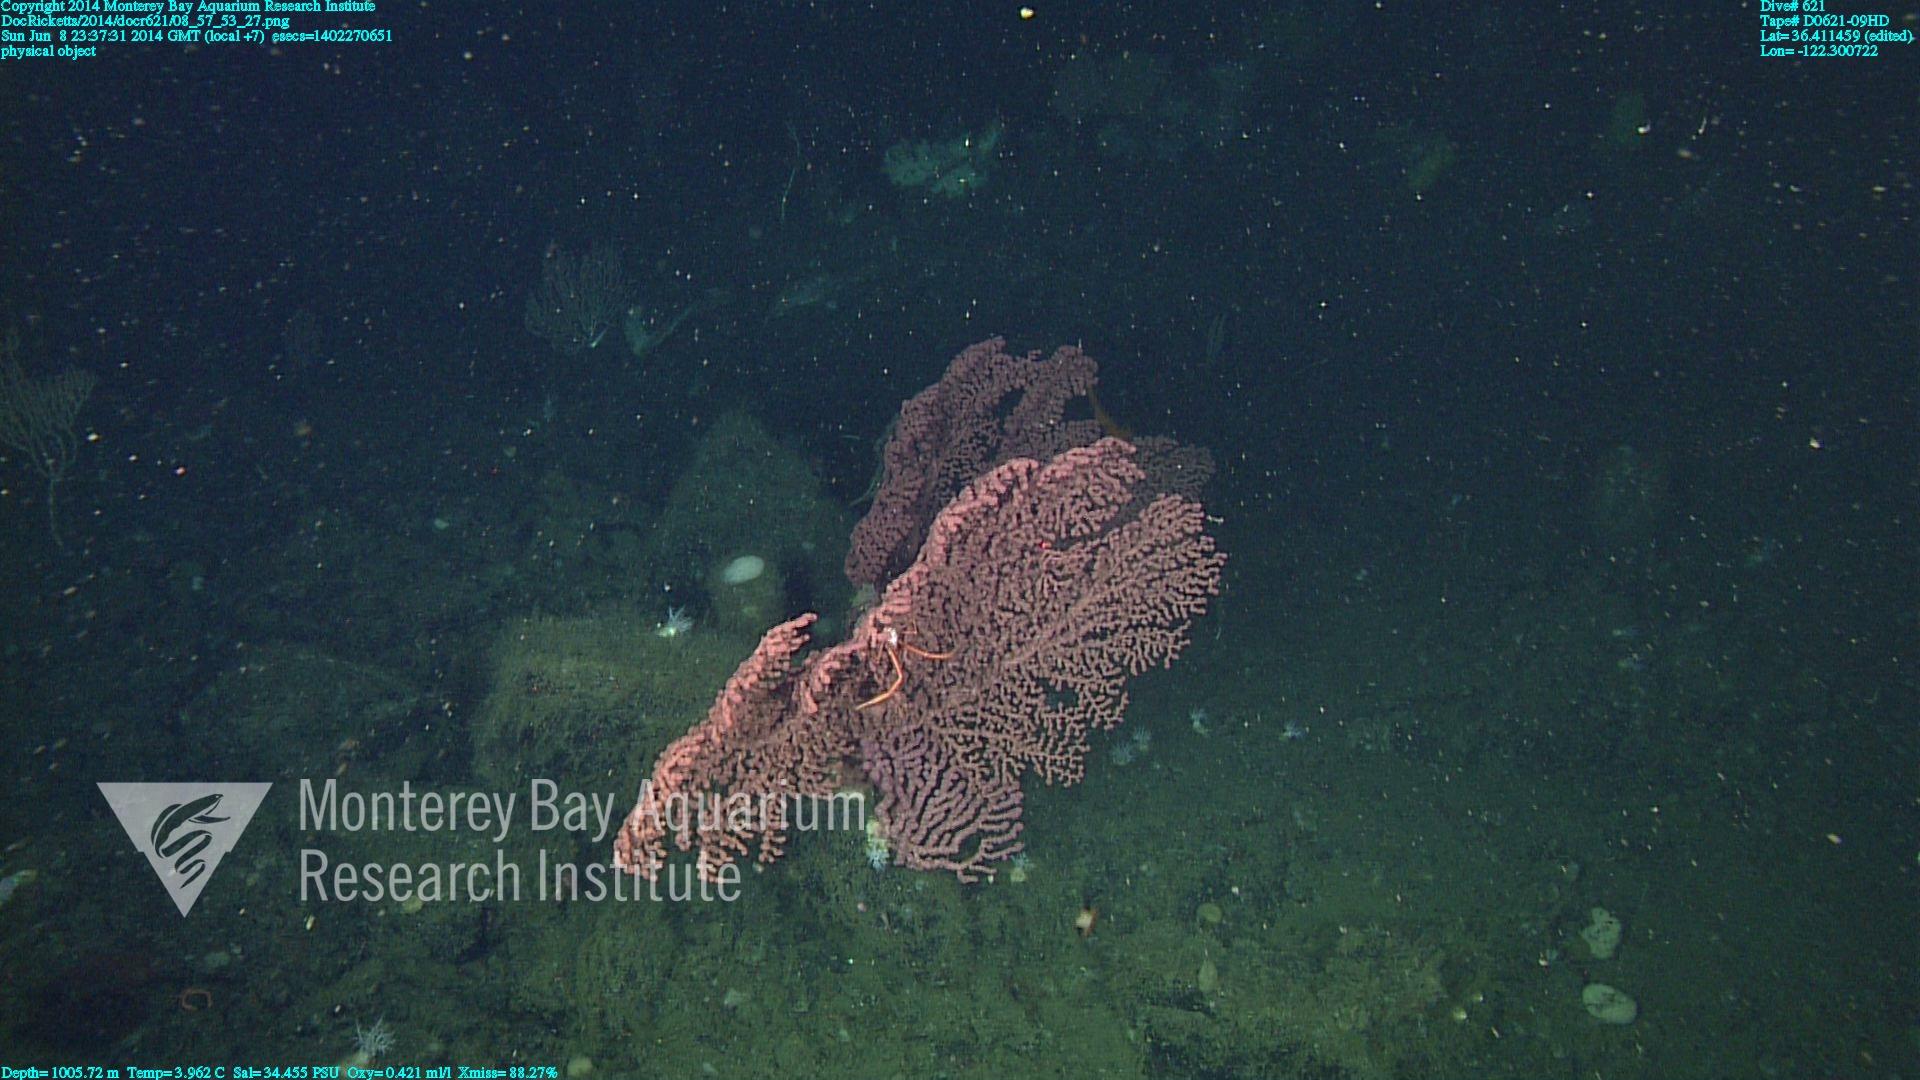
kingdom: Animalia
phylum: Cnidaria
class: Anthozoa
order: Scleralcyonacea
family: Coralliidae
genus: Paragorgia
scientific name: Paragorgia arborea
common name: Bubble gum coral
